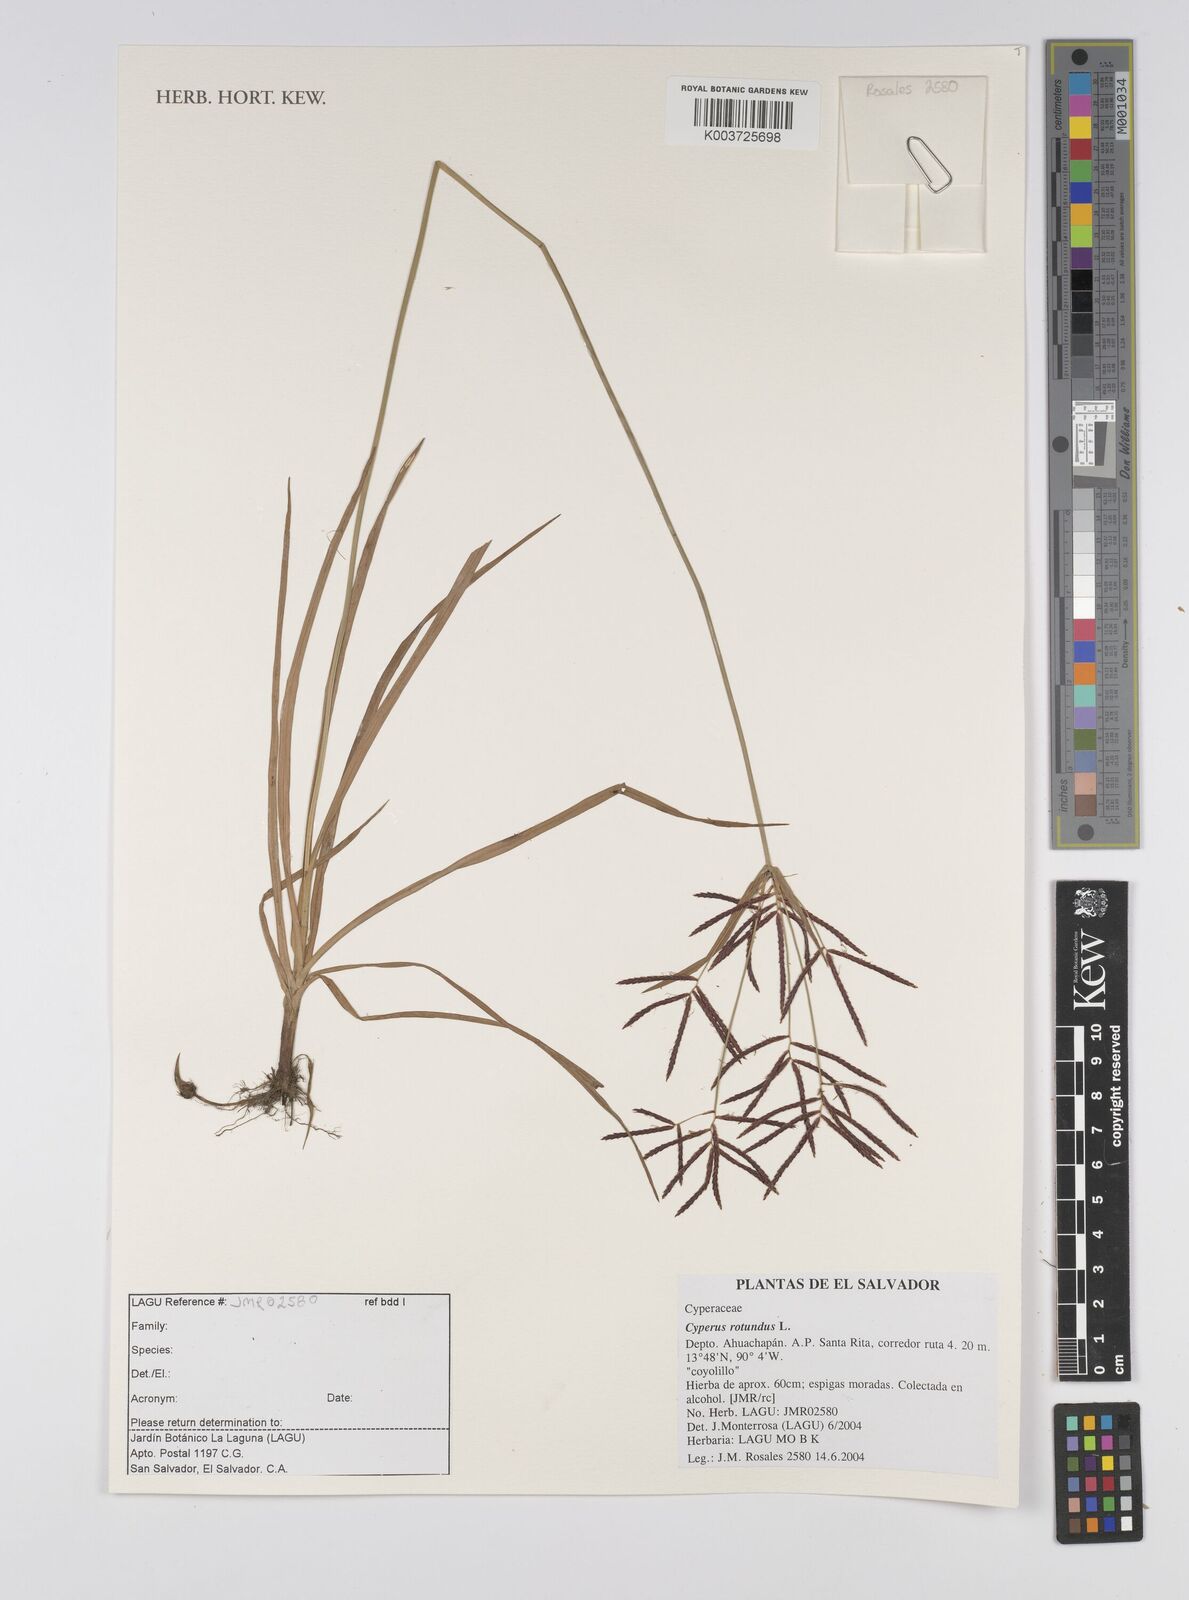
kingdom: Plantae
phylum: Tracheophyta
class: Liliopsida
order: Poales
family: Cyperaceae
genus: Cyperus
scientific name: Cyperus rotundus
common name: Nutgrass
